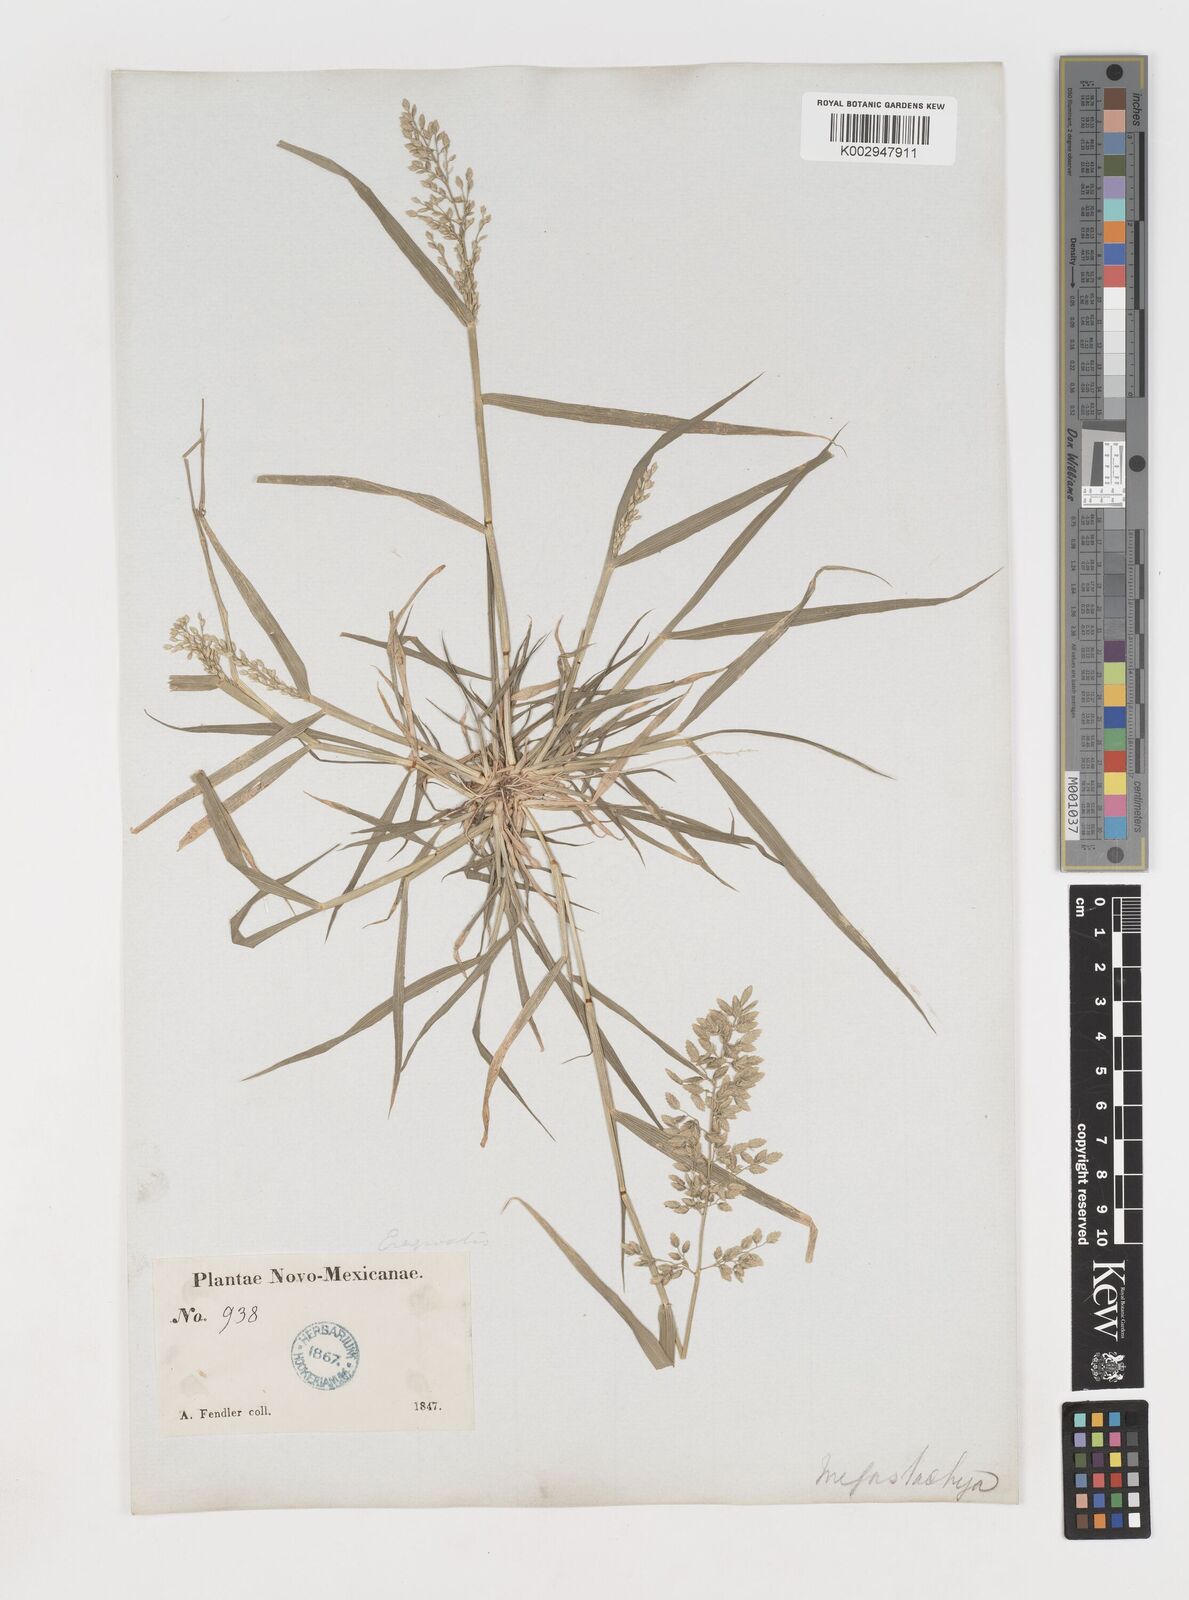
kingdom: Plantae
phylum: Tracheophyta
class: Liliopsida
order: Poales
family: Poaceae
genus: Eragrostis
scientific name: Eragrostis
